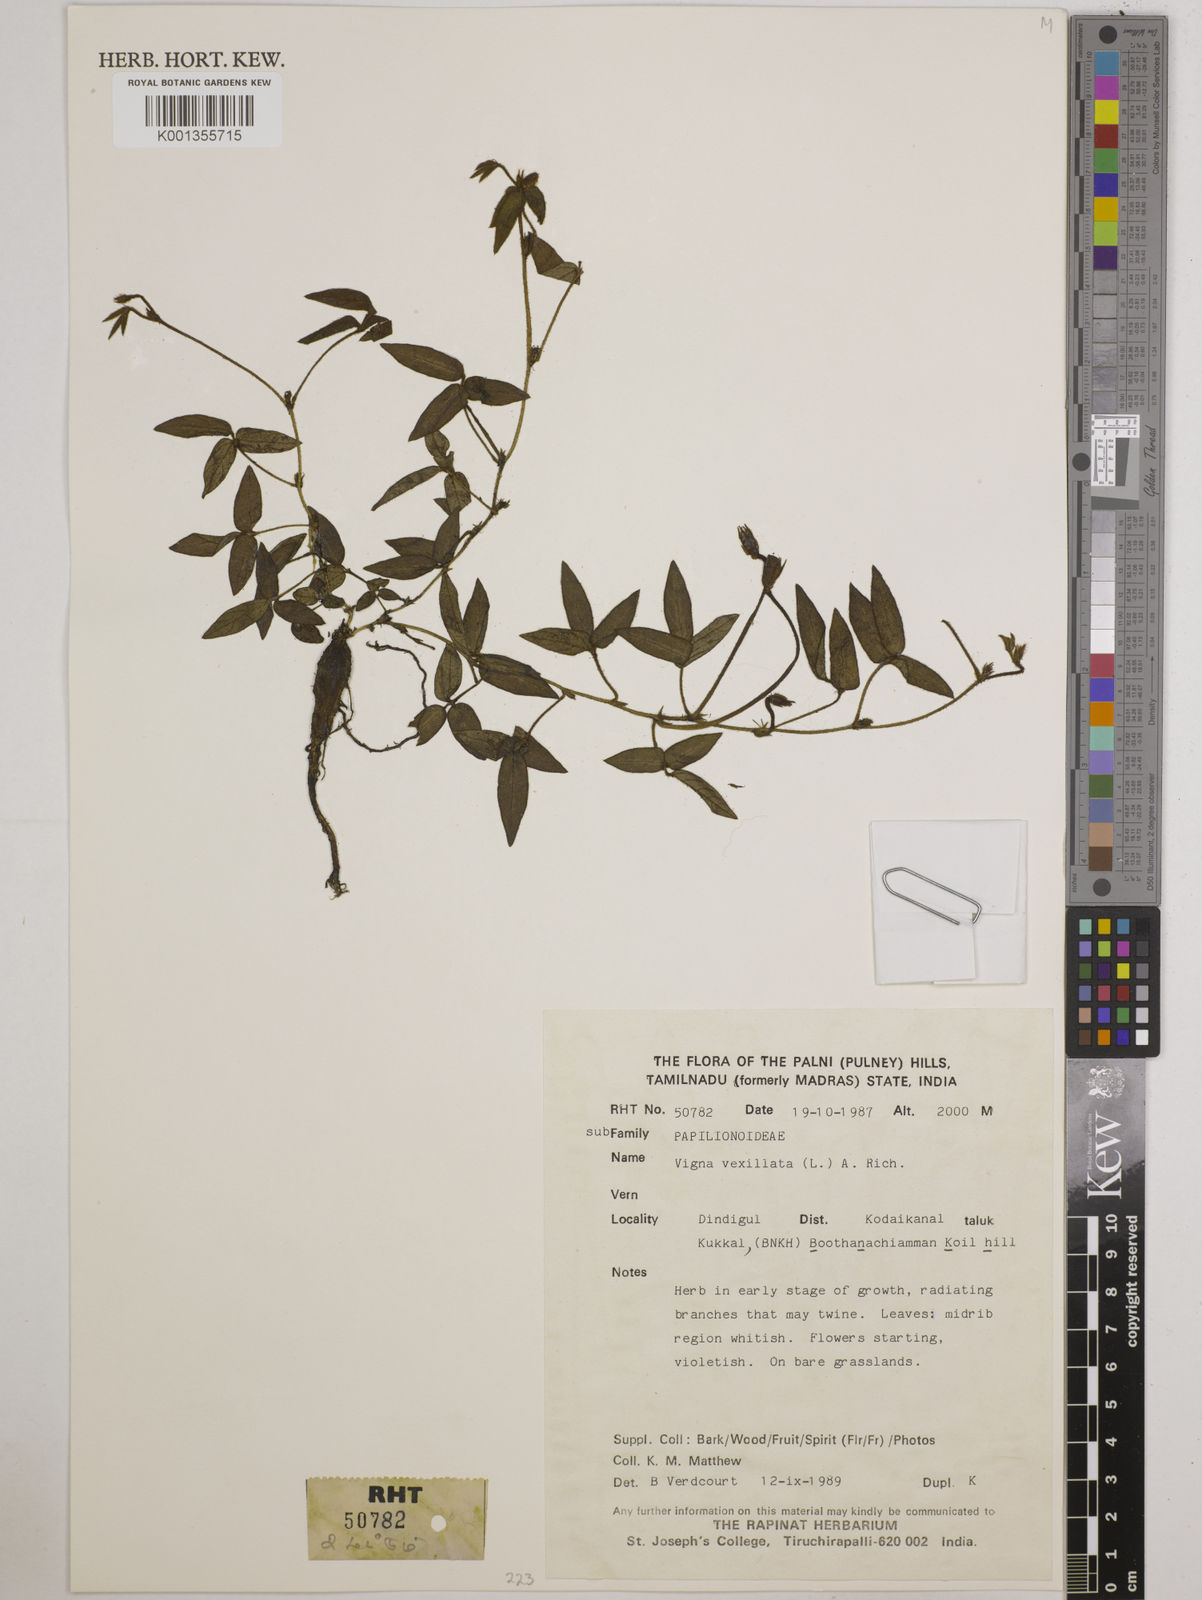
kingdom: Plantae
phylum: Tracheophyta
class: Magnoliopsida
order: Fabales
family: Fabaceae
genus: Vigna
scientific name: Vigna vexillata
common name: Zombi pea
